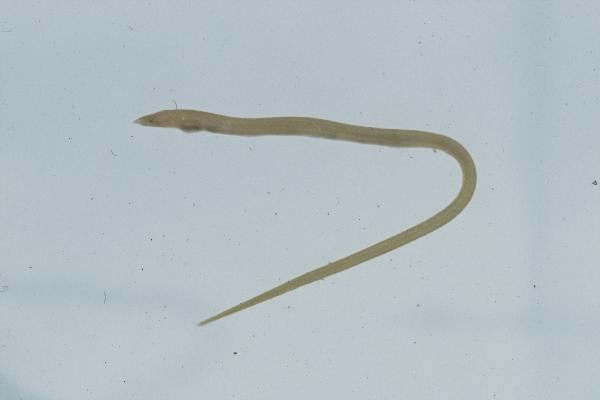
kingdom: Animalia
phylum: Chordata
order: Anguilliformes
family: Ophichthidae
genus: Scolecenchelys
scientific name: Scolecenchelys gymnota
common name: Slender worm eel
